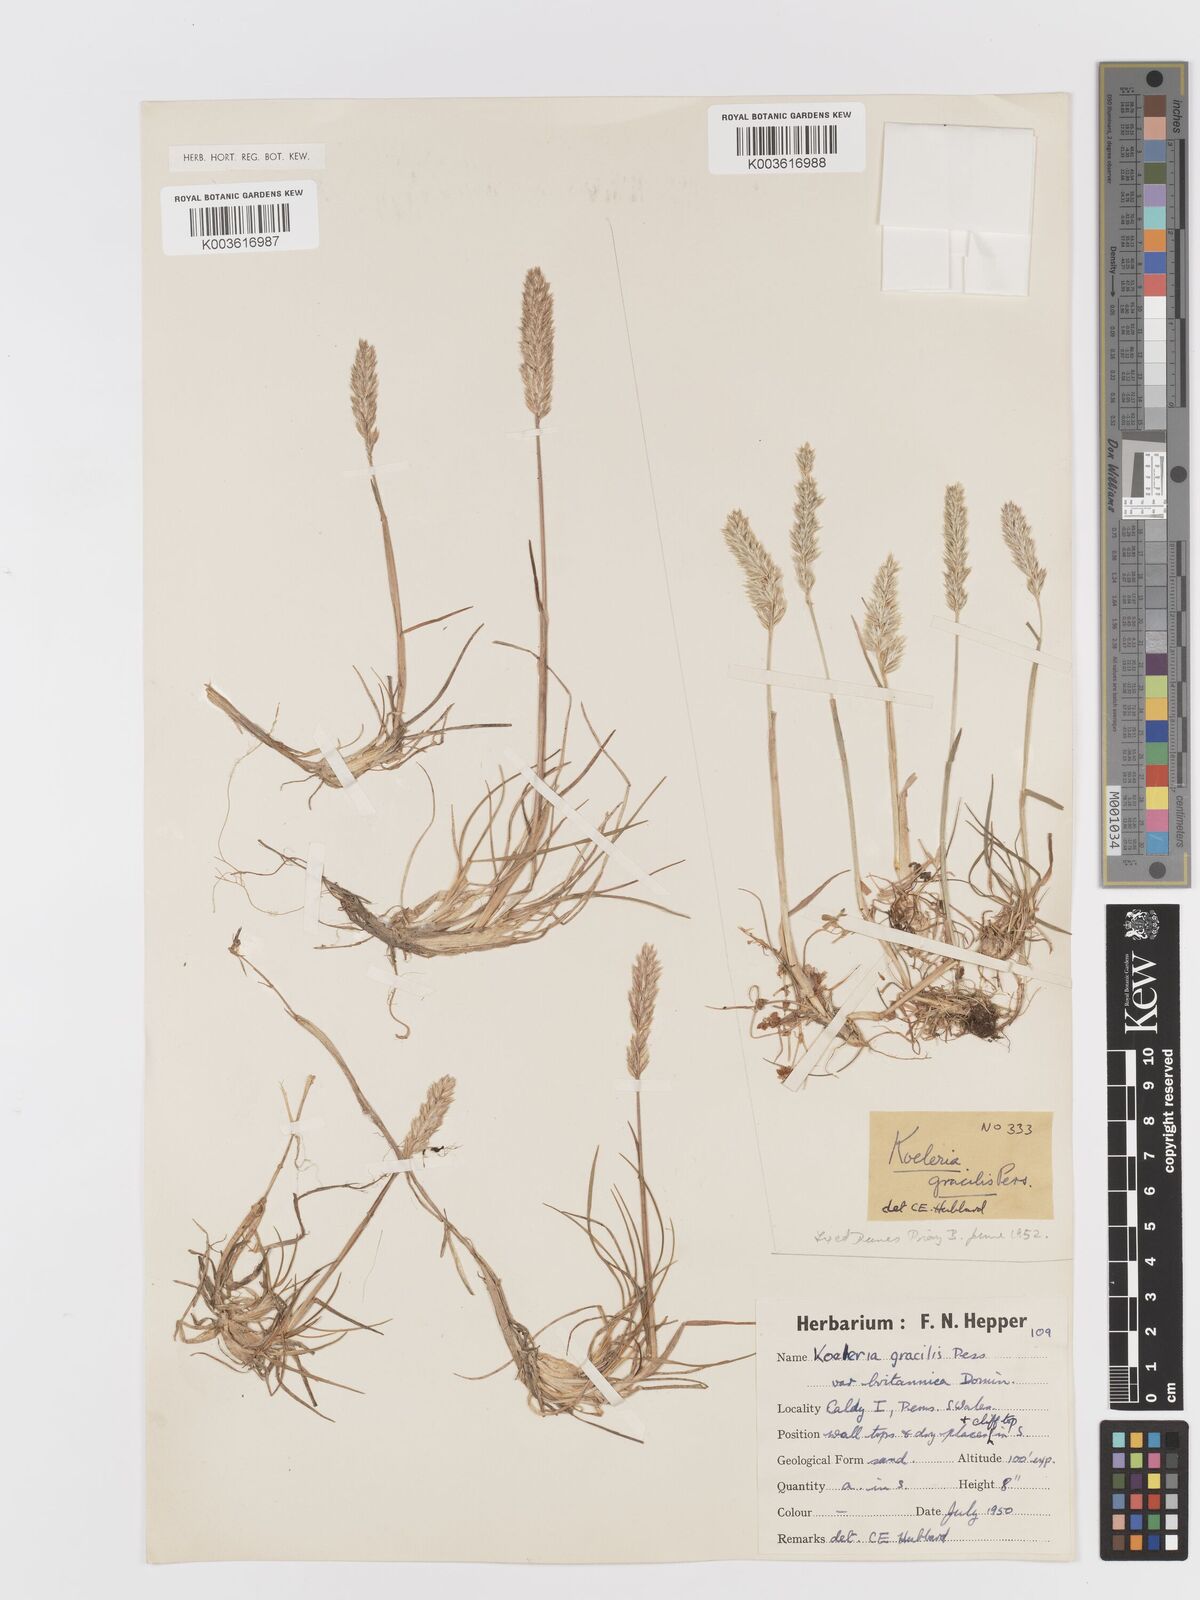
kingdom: Plantae
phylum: Tracheophyta
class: Liliopsida
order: Poales
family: Poaceae
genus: Koeleria
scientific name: Koeleria macrantha
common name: Crested hair-grass
